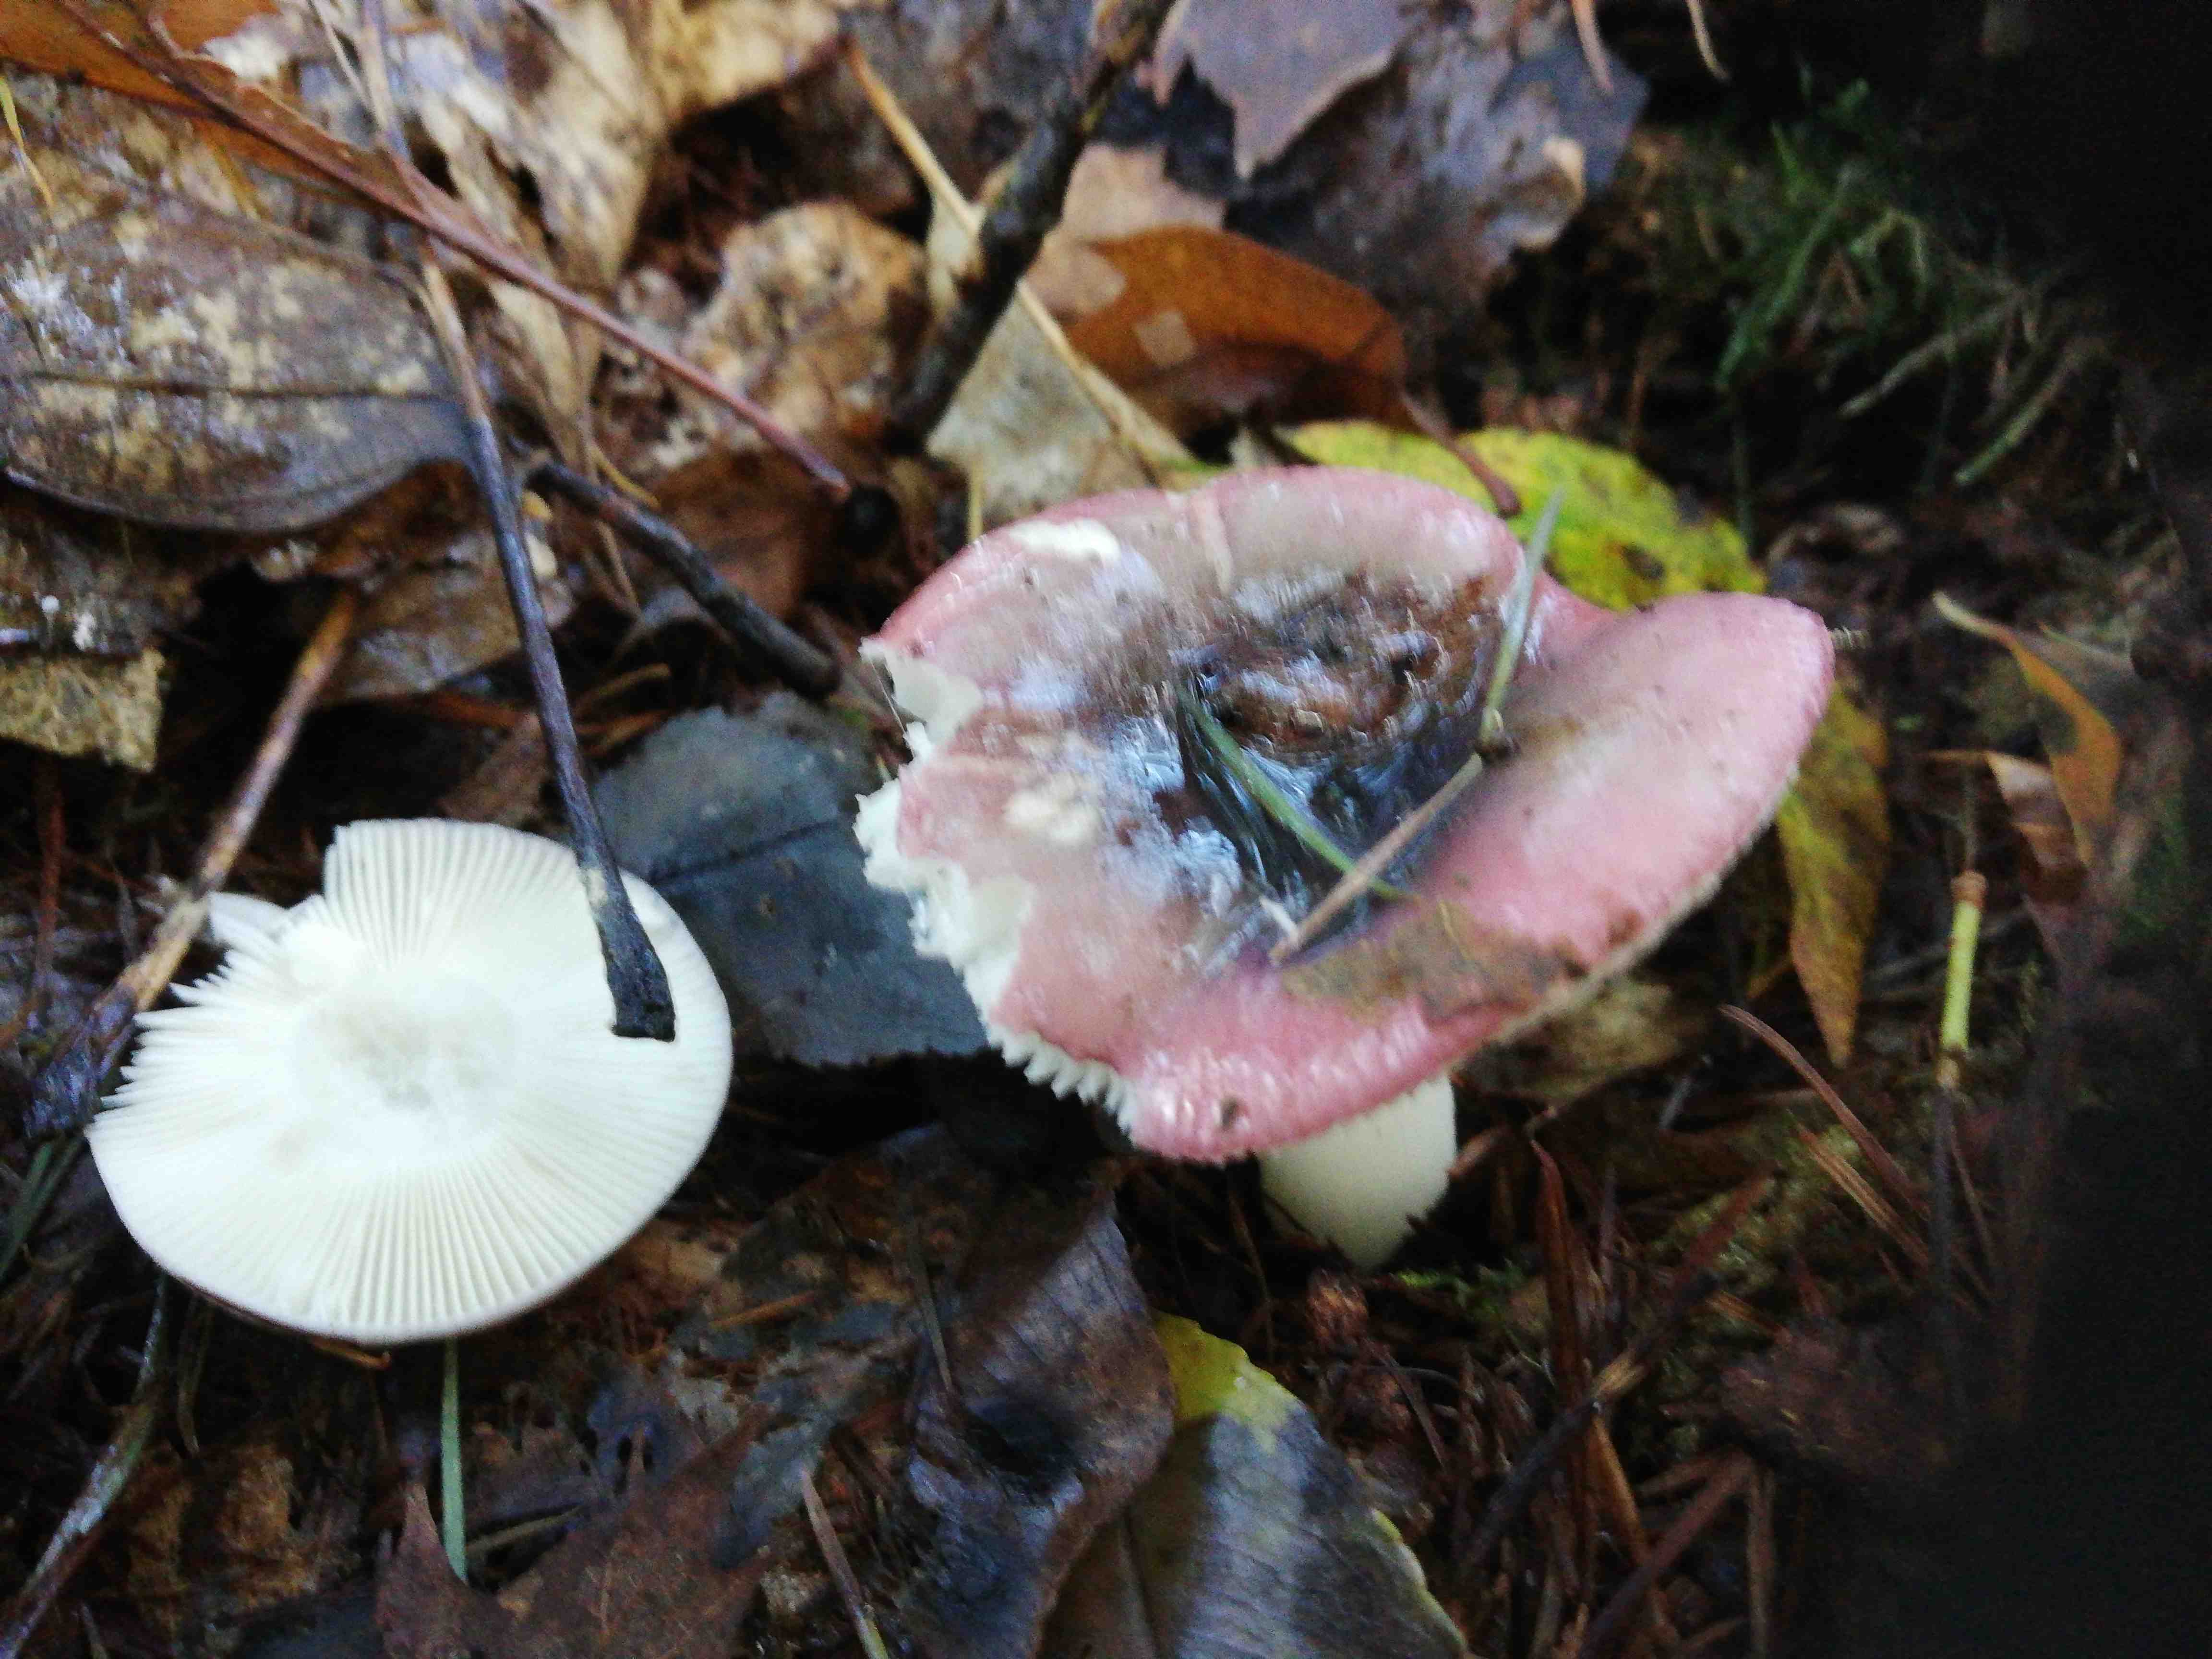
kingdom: Fungi
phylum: Basidiomycota
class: Agaricomycetes
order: Russulales
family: Russulaceae
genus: Russula
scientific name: Russula
